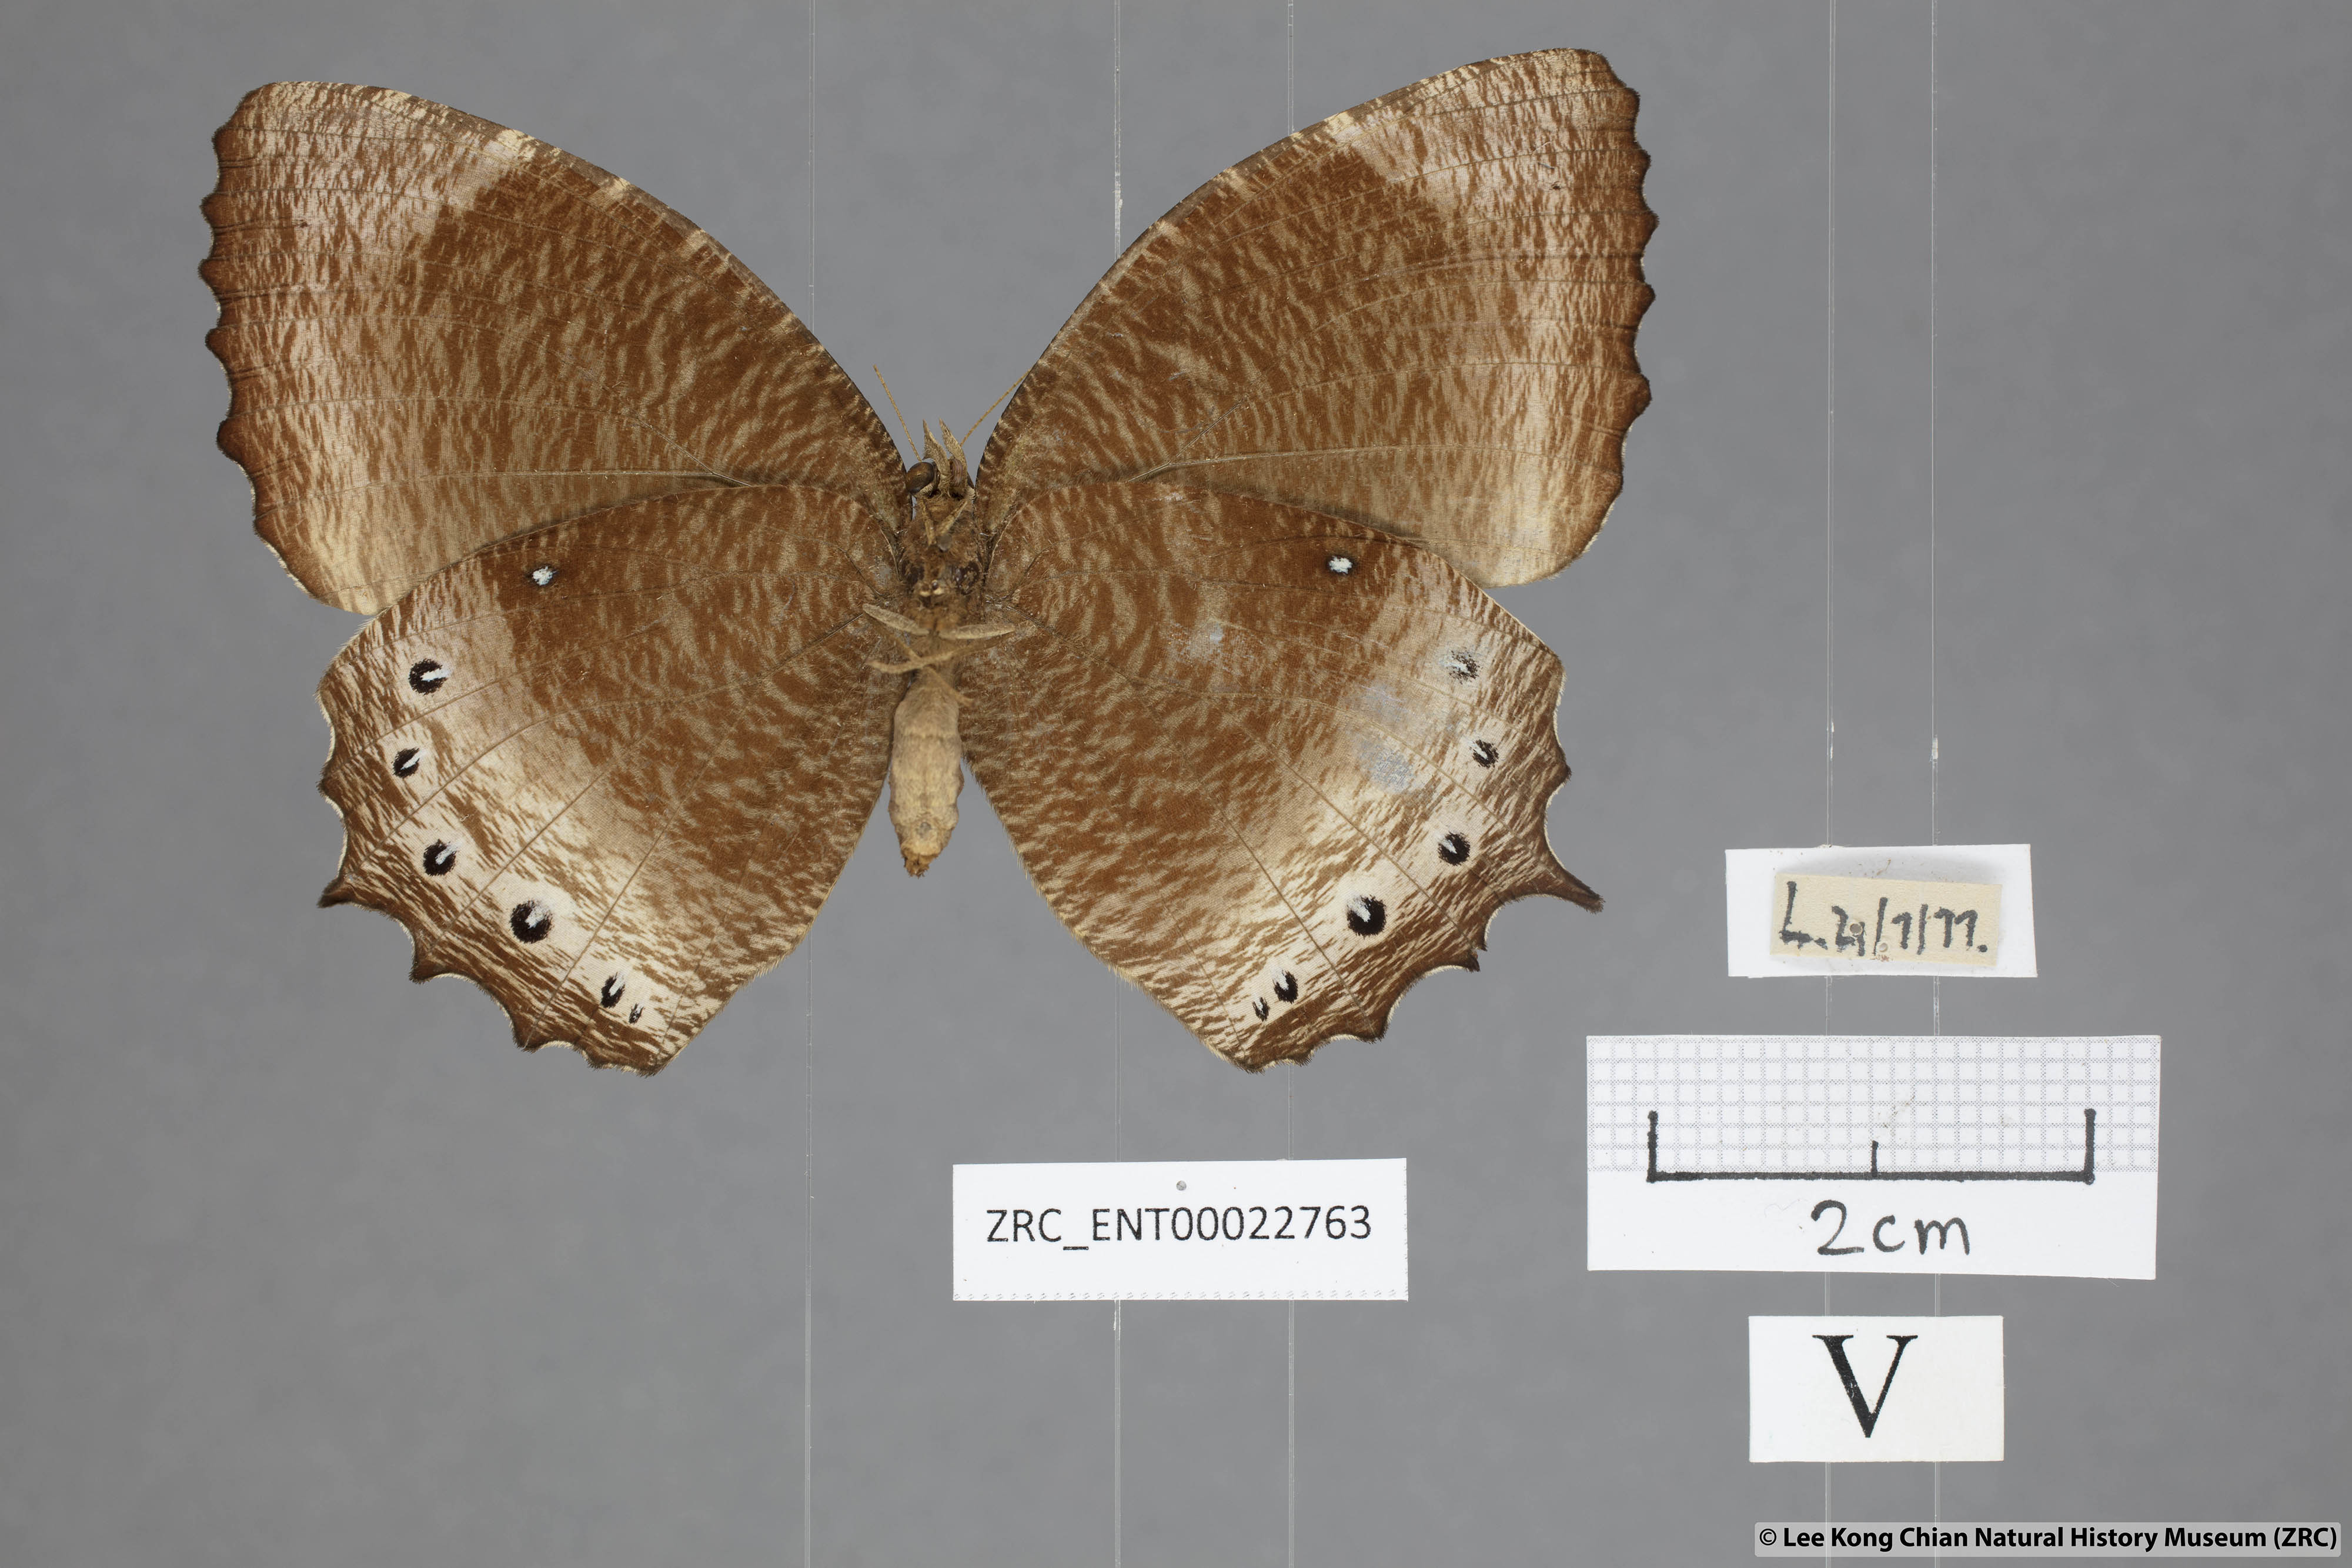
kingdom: Animalia
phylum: Arthropoda
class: Insecta
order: Lepidoptera
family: Nymphalidae
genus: Elymnias
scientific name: Elymnias panthera
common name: Tawny palmfly
